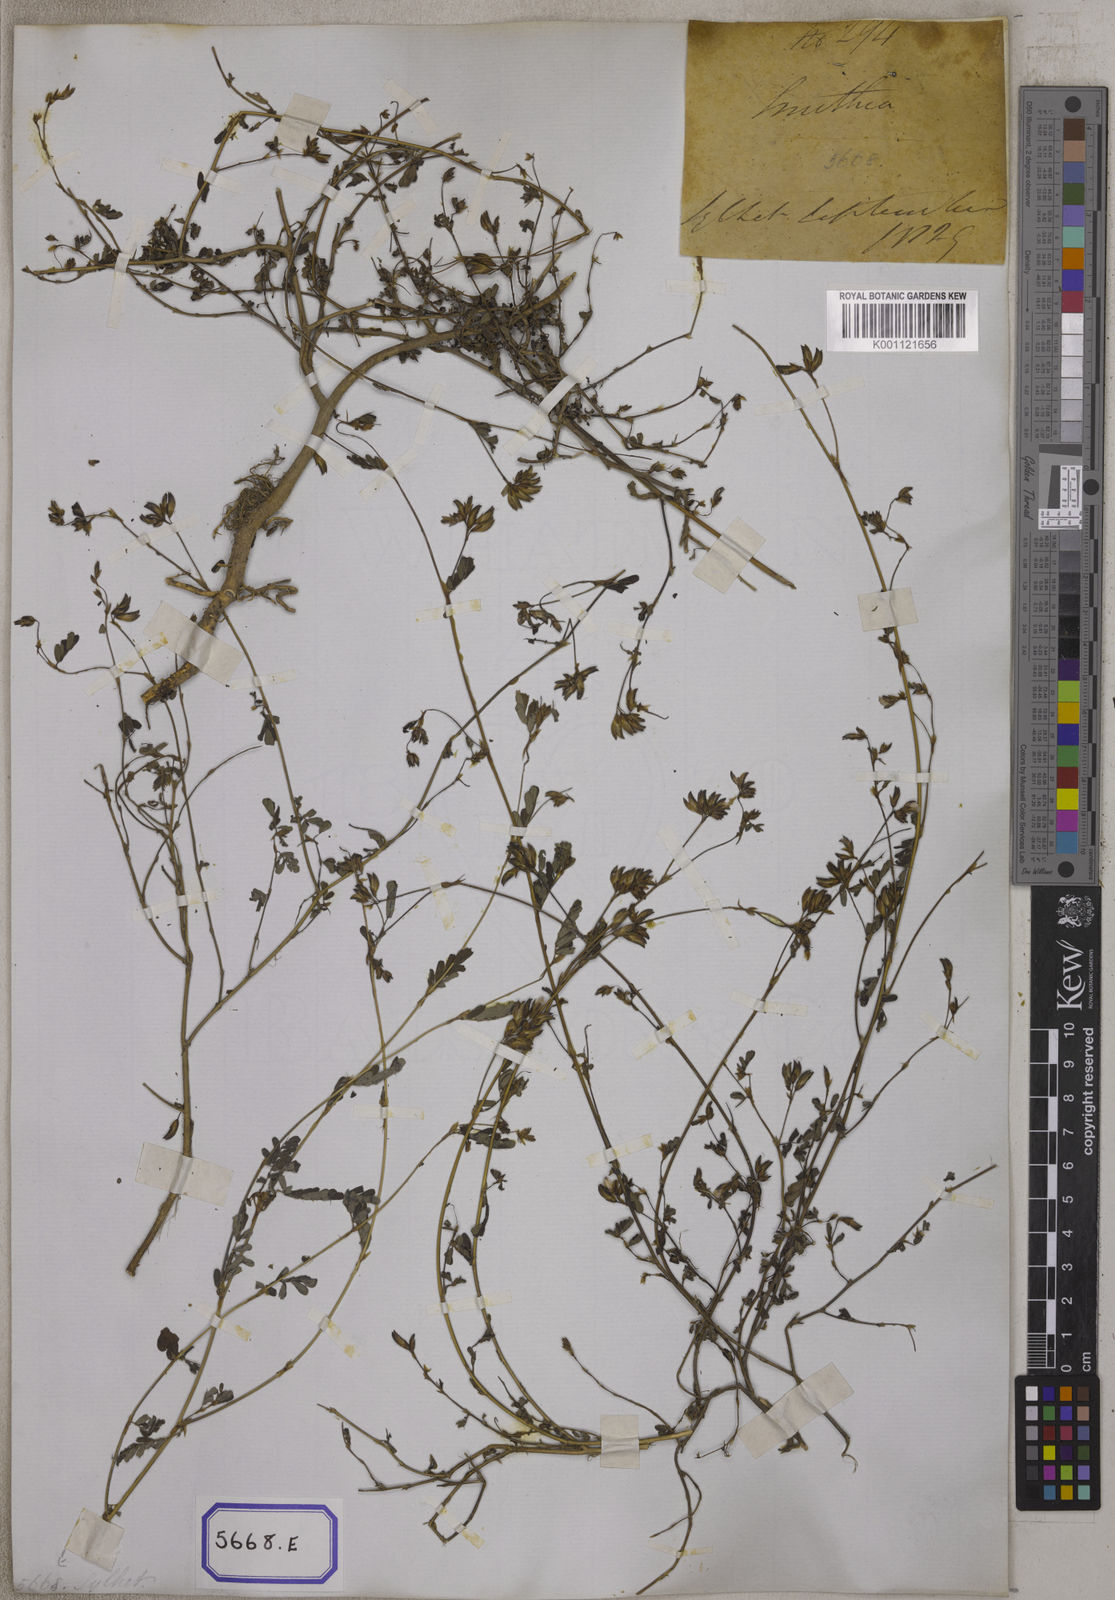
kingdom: Plantae
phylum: Tracheophyta
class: Magnoliopsida
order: Fabales
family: Fabaceae
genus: Smithia
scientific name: Smithia sensitiva
